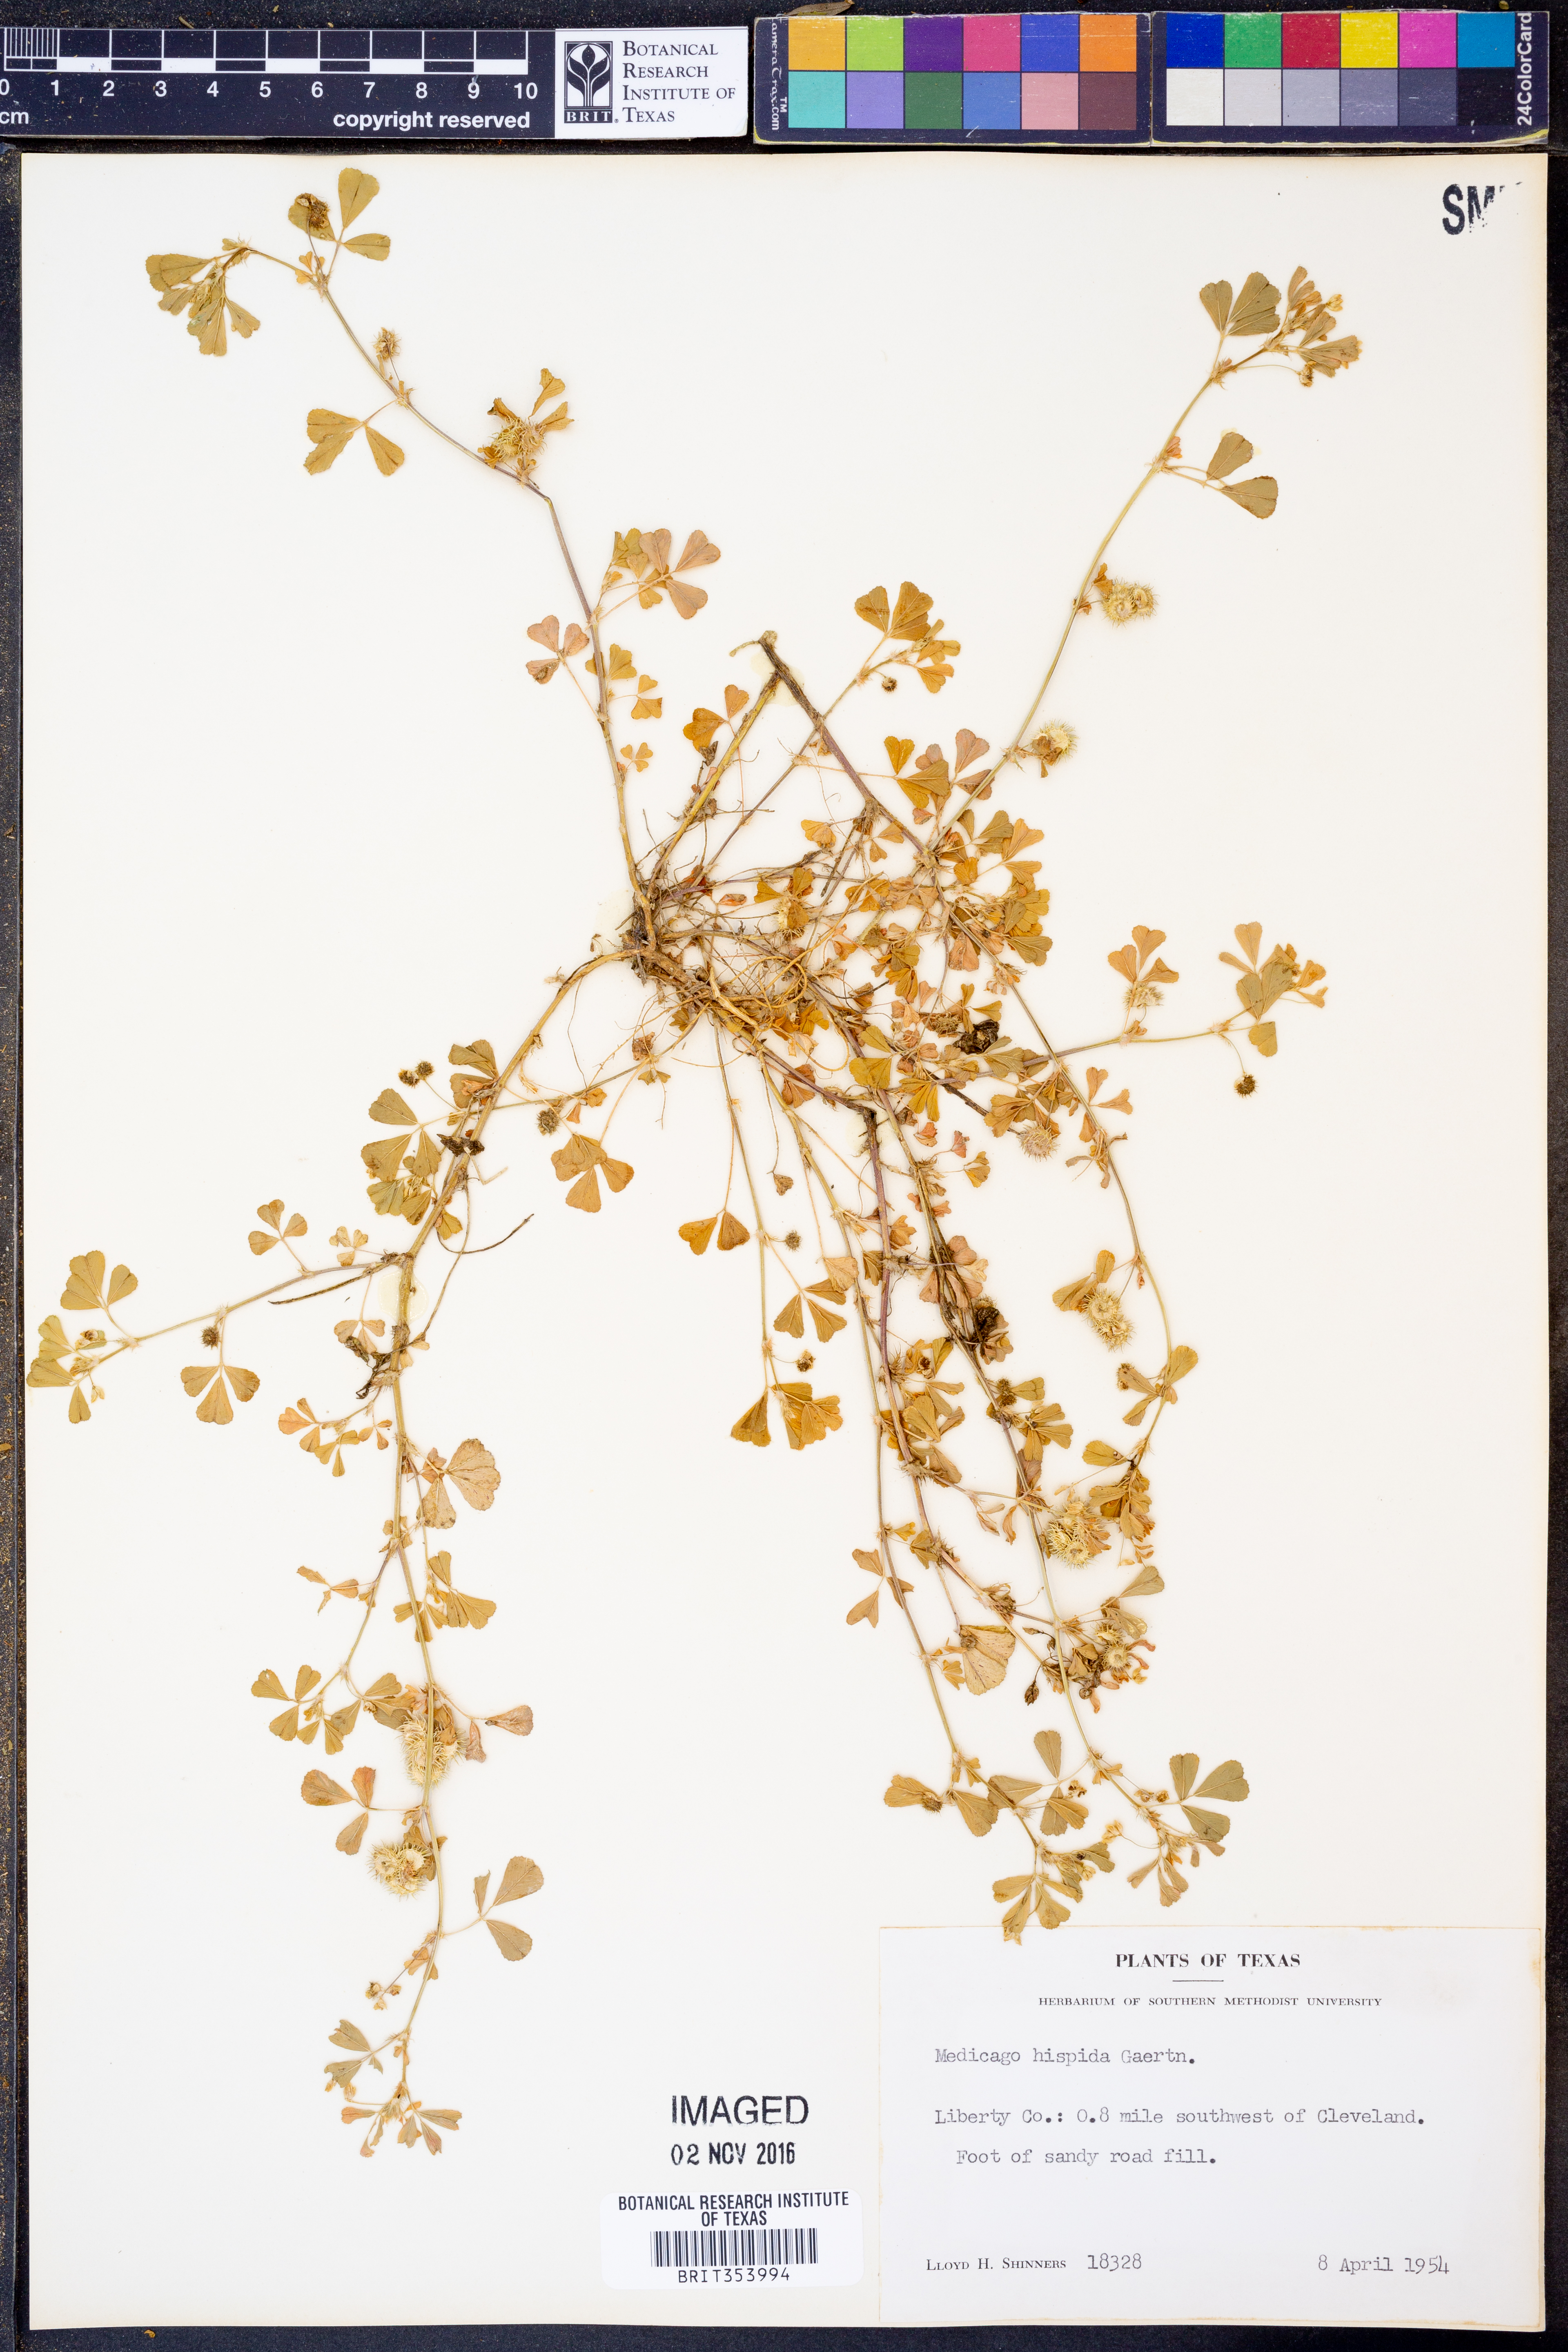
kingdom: Plantae
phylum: Tracheophyta
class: Magnoliopsida
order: Fabales
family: Fabaceae
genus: Medicago
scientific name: Medicago polymorpha
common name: Burclover
